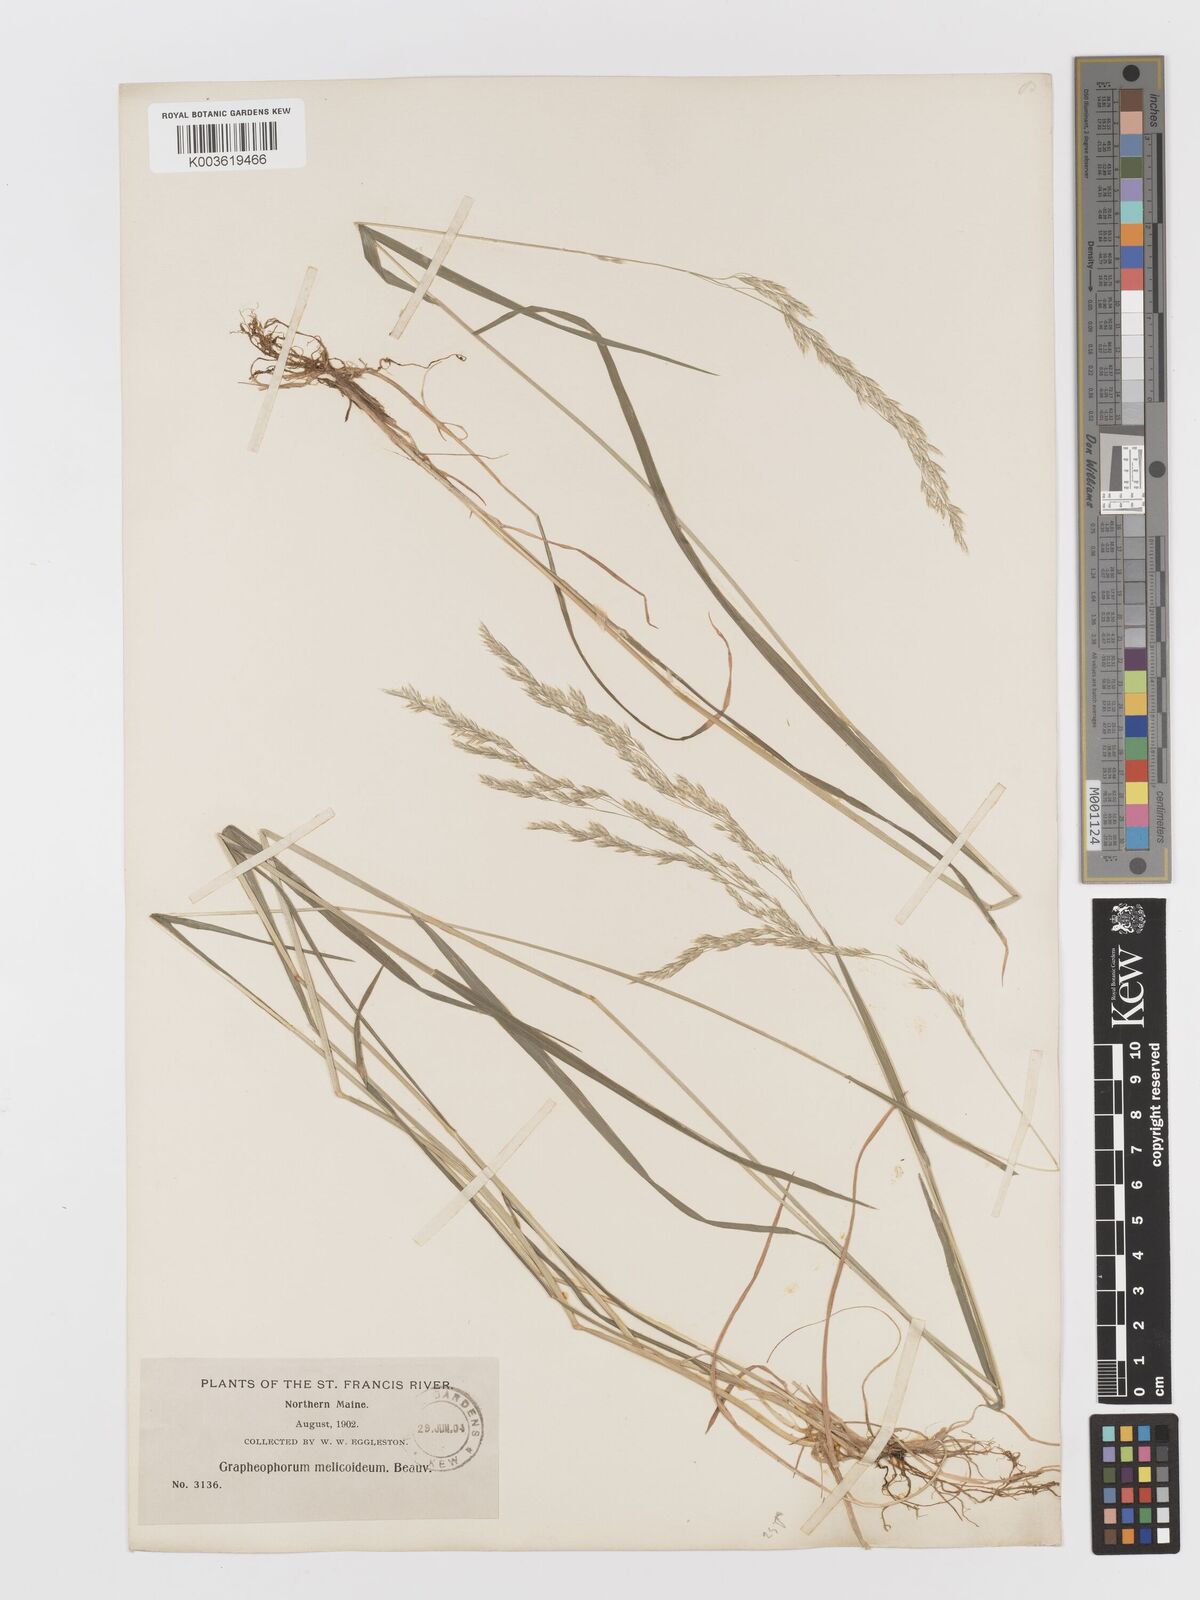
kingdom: Plantae
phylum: Tracheophyta
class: Liliopsida
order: Poales
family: Poaceae
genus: Graphephorum
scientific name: Graphephorum melicoides
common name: False melic
